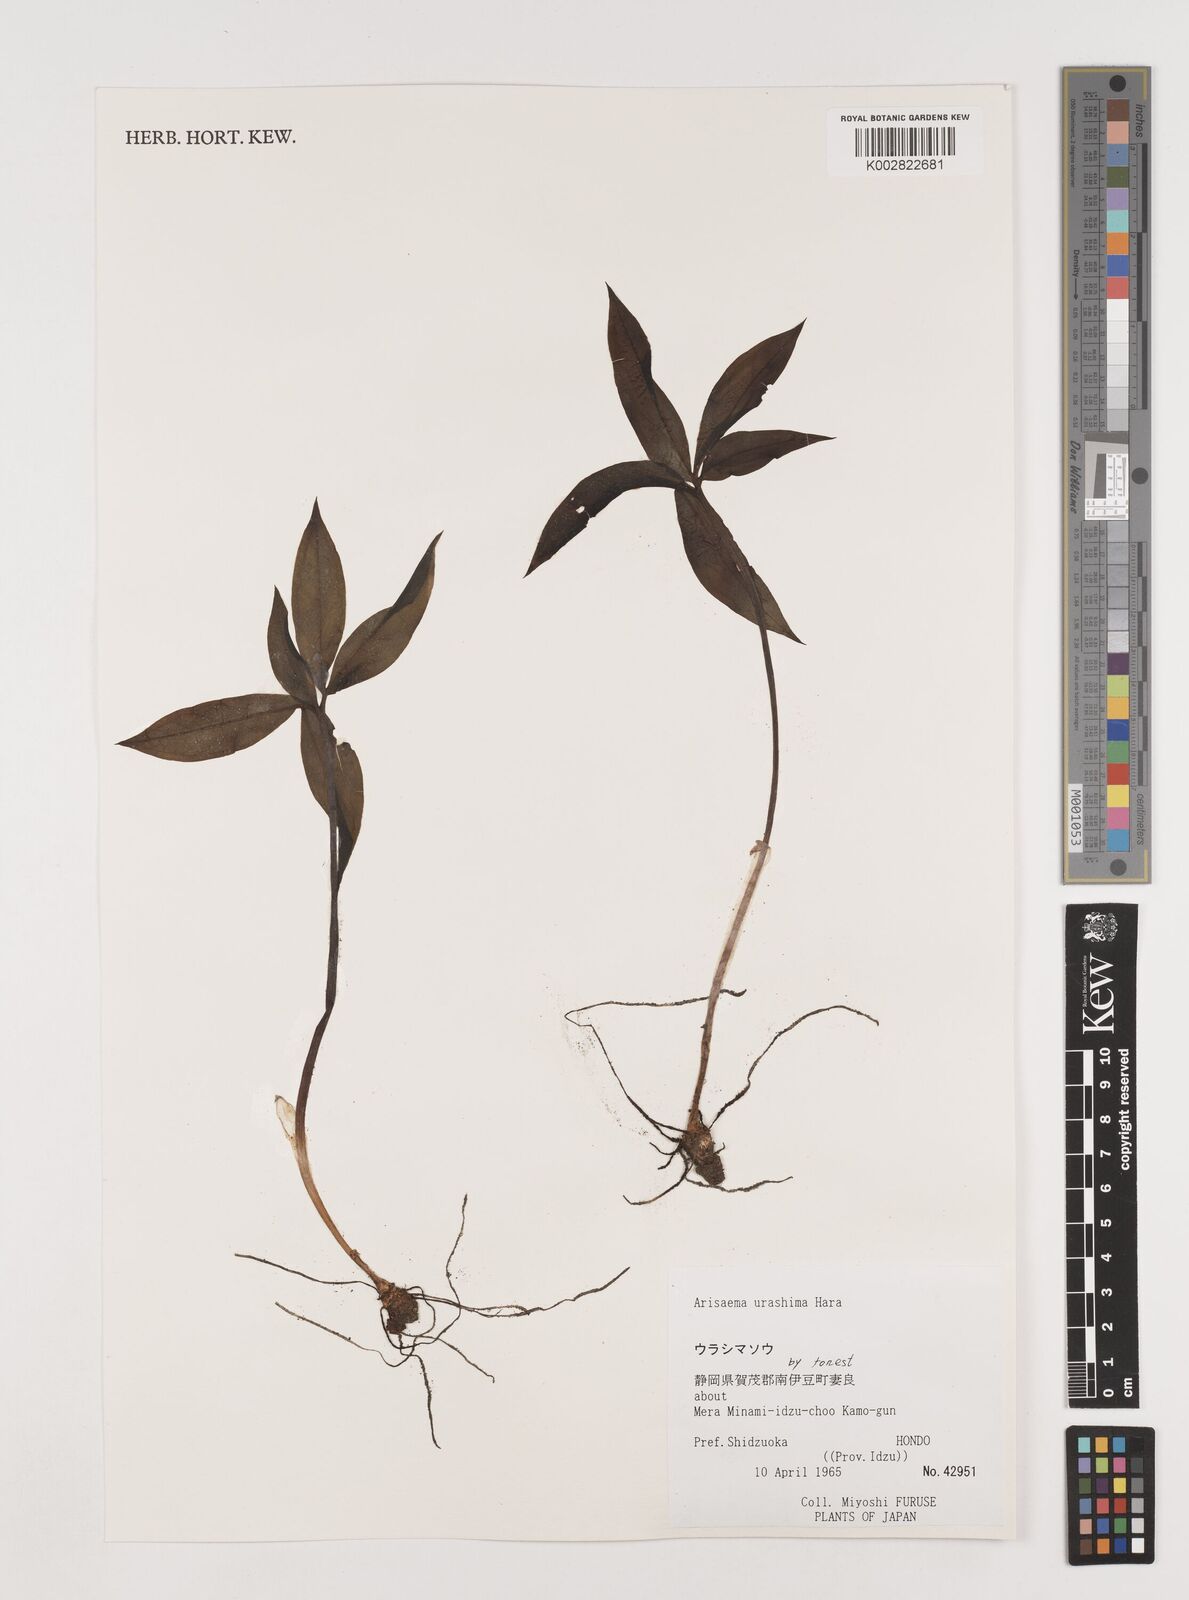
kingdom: Plantae
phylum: Tracheophyta
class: Liliopsida
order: Alismatales
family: Araceae
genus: Arisaema
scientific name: Arisaema
